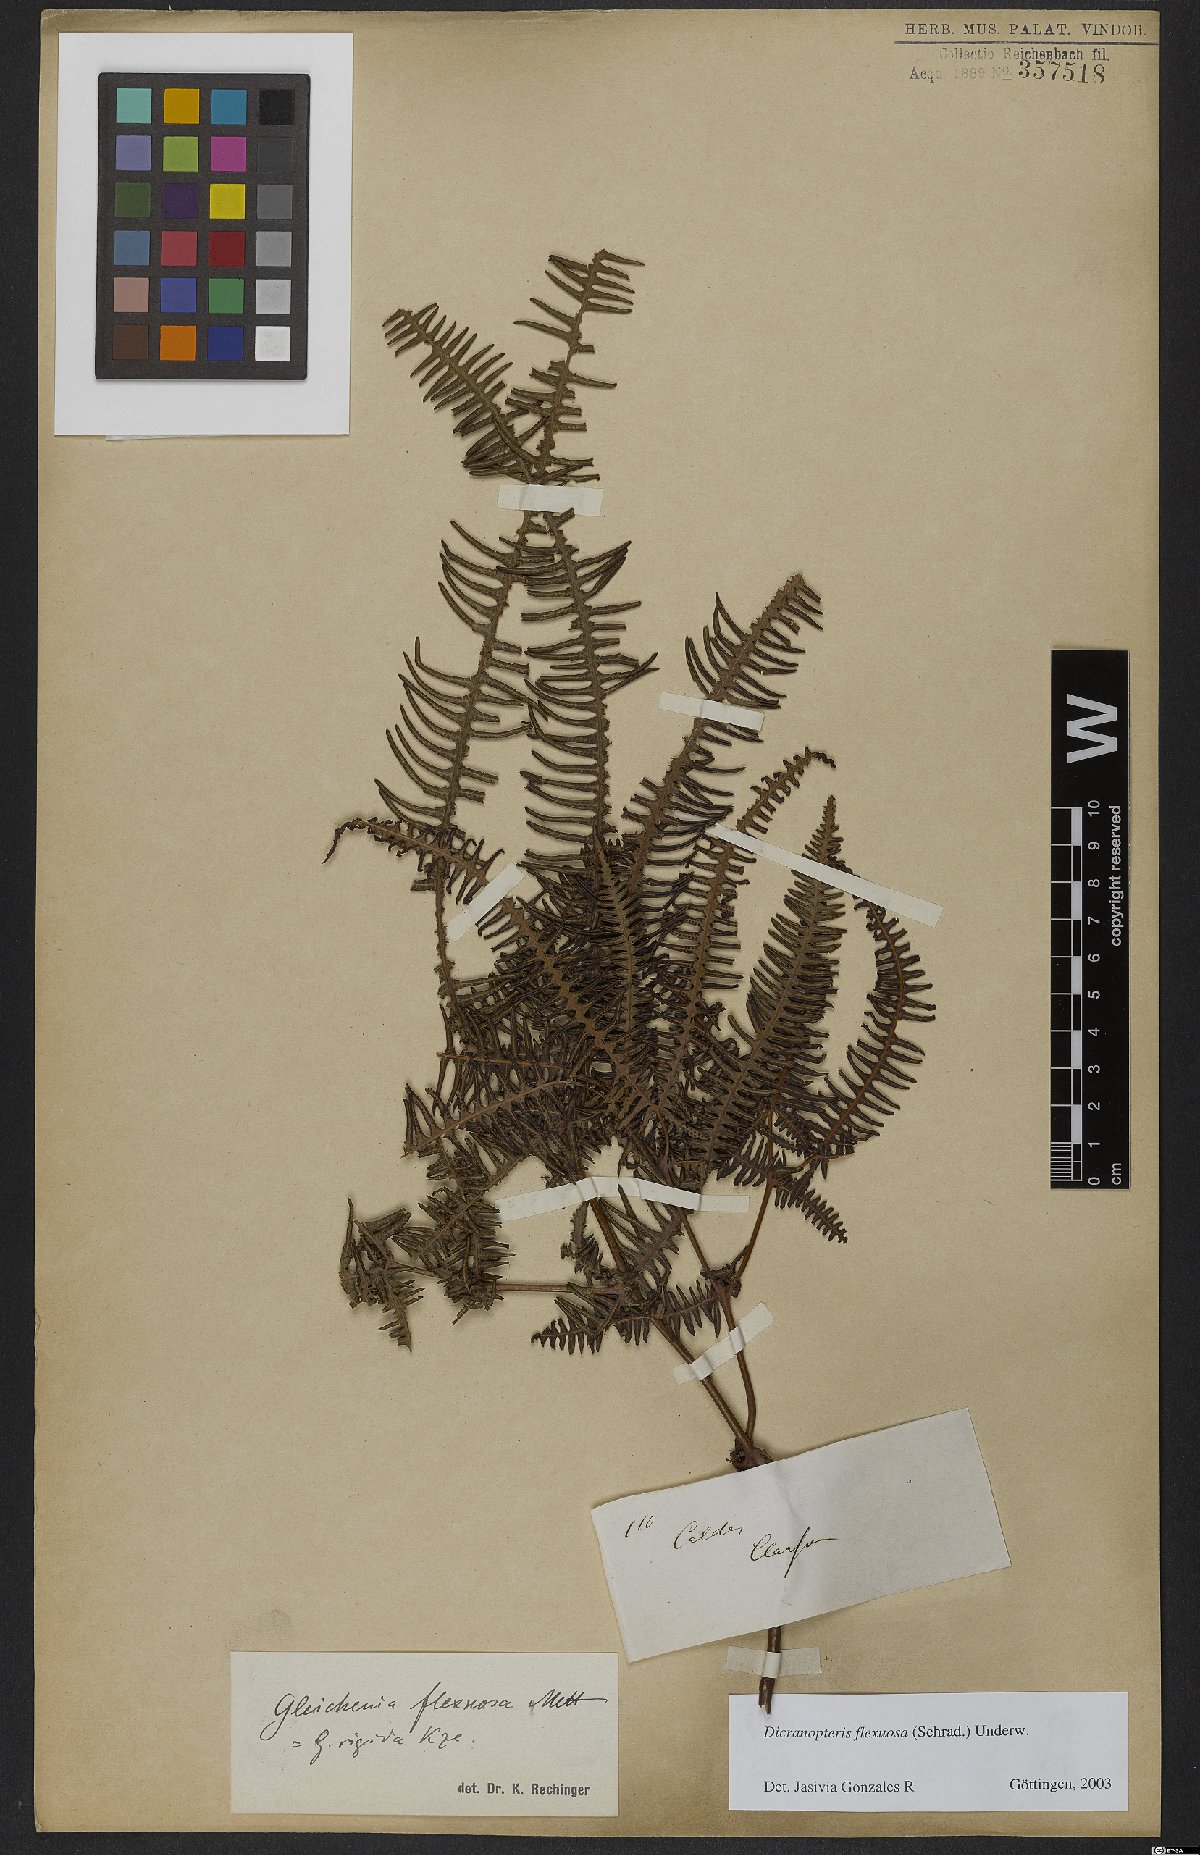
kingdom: Plantae
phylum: Tracheophyta
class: Polypodiopsida
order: Gleicheniales
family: Gleicheniaceae
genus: Dicranopteris
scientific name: Dicranopteris flexuosa
